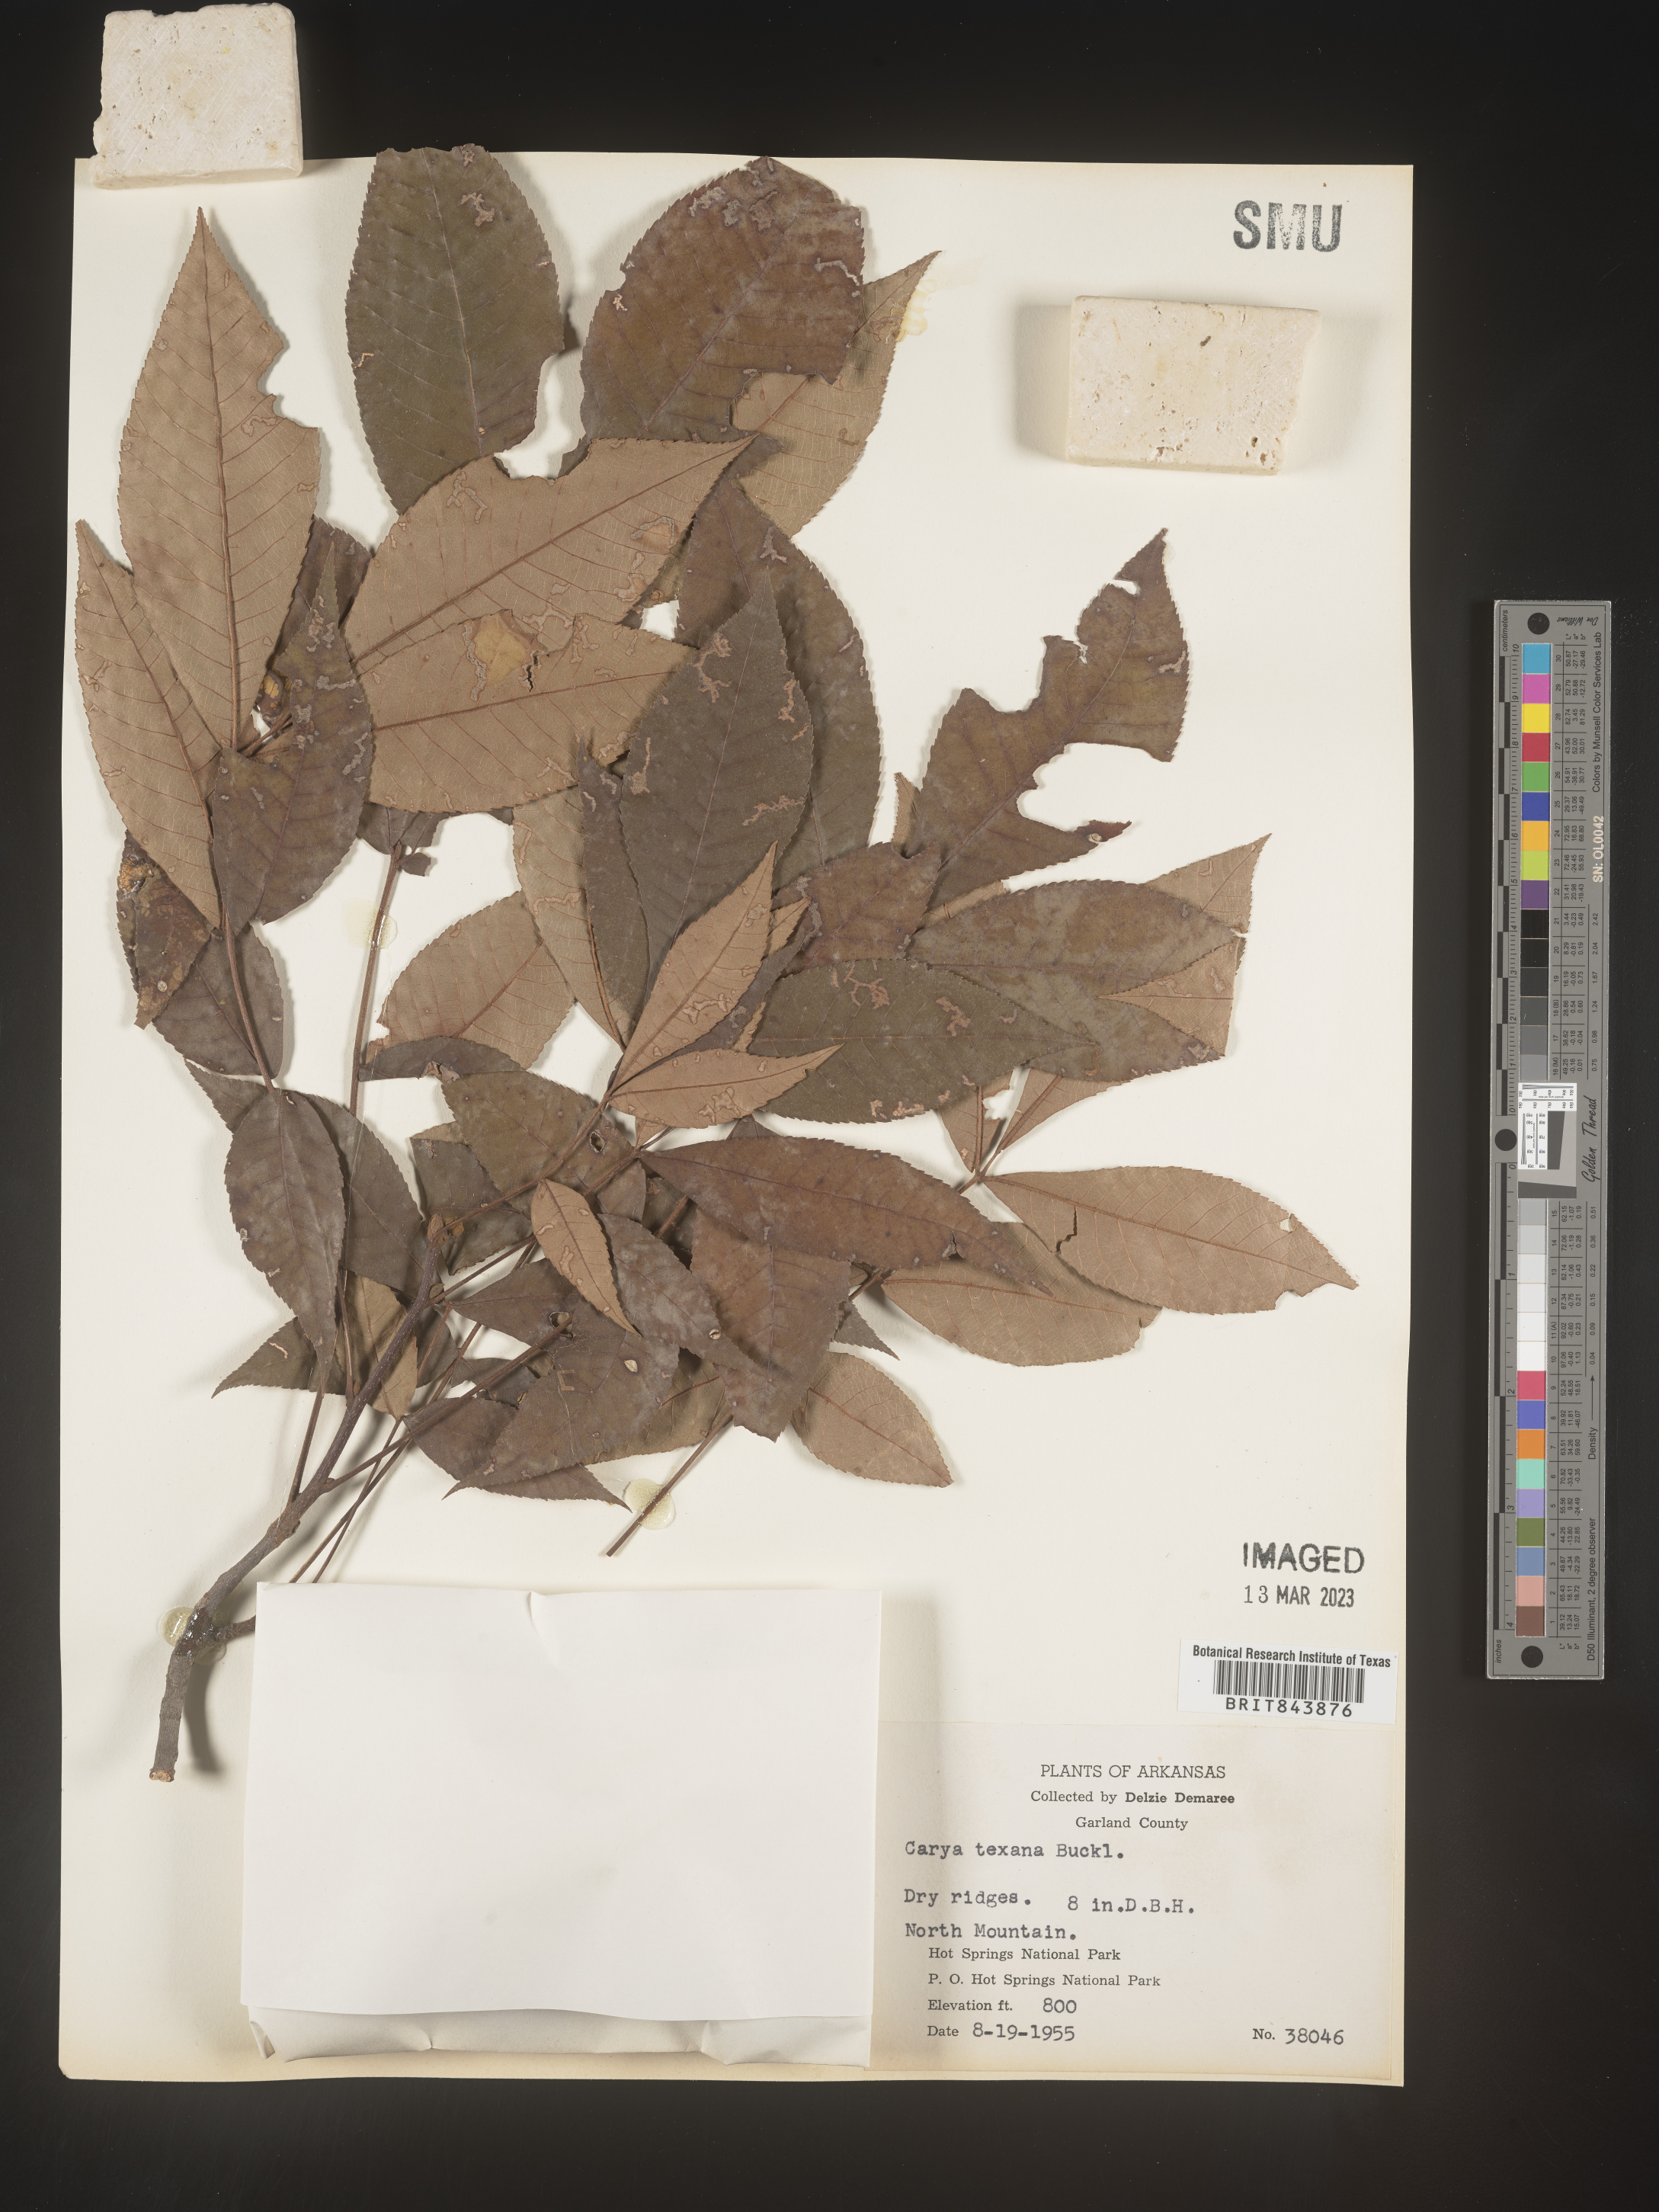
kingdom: Plantae
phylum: Tracheophyta
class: Magnoliopsida
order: Fagales
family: Juglandaceae
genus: Carya
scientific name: Carya texana
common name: Black hickory
